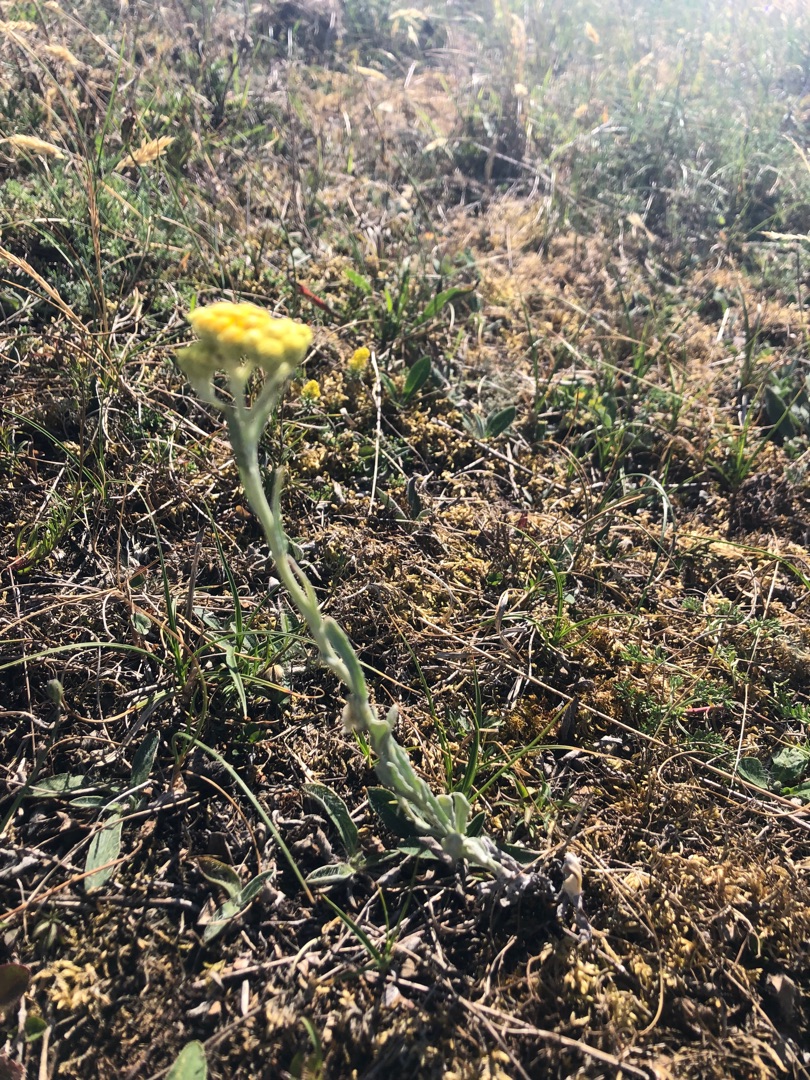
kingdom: Plantae
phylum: Tracheophyta
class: Magnoliopsida
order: Asterales
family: Asteraceae
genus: Helichrysum
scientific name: Helichrysum arenarium
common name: Gul evighedsblomst
